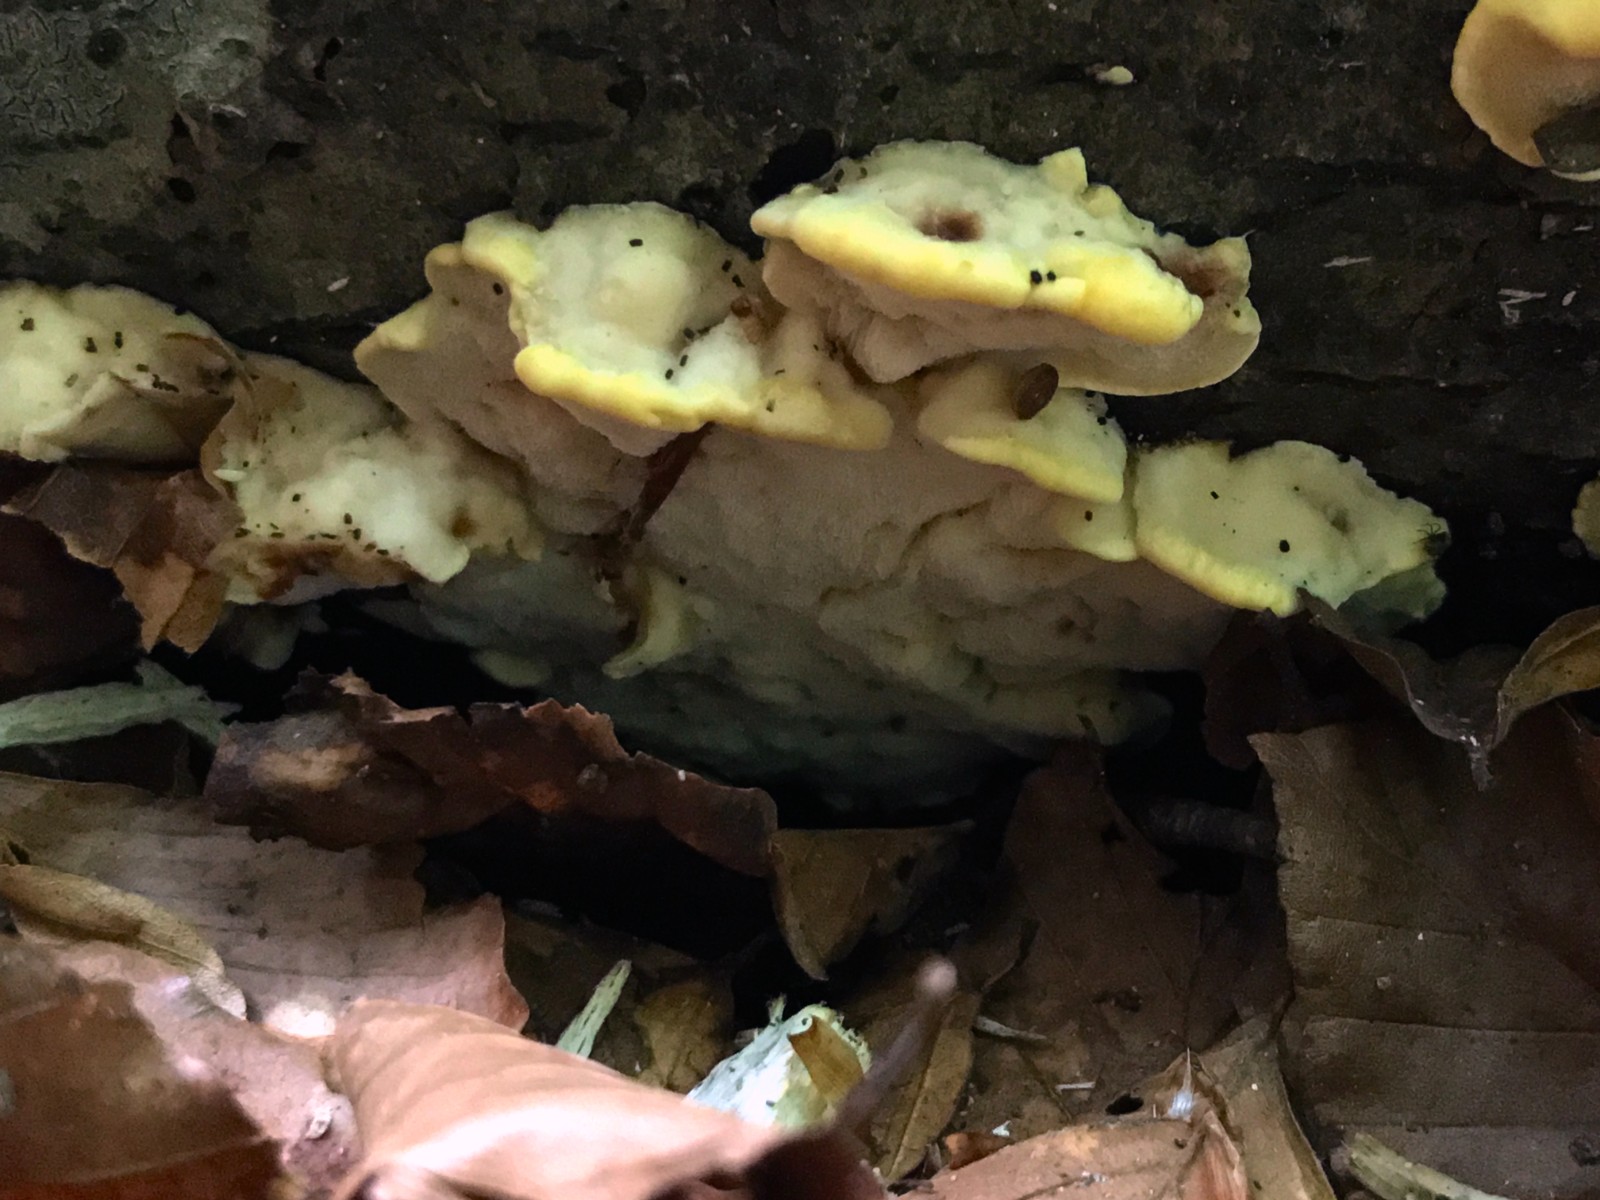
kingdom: Fungi
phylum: Basidiomycota
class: Agaricomycetes
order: Polyporales
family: Steccherinaceae
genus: Antrodiella
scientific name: Antrodiella serpula
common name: gulrandet elastikporesvamp
